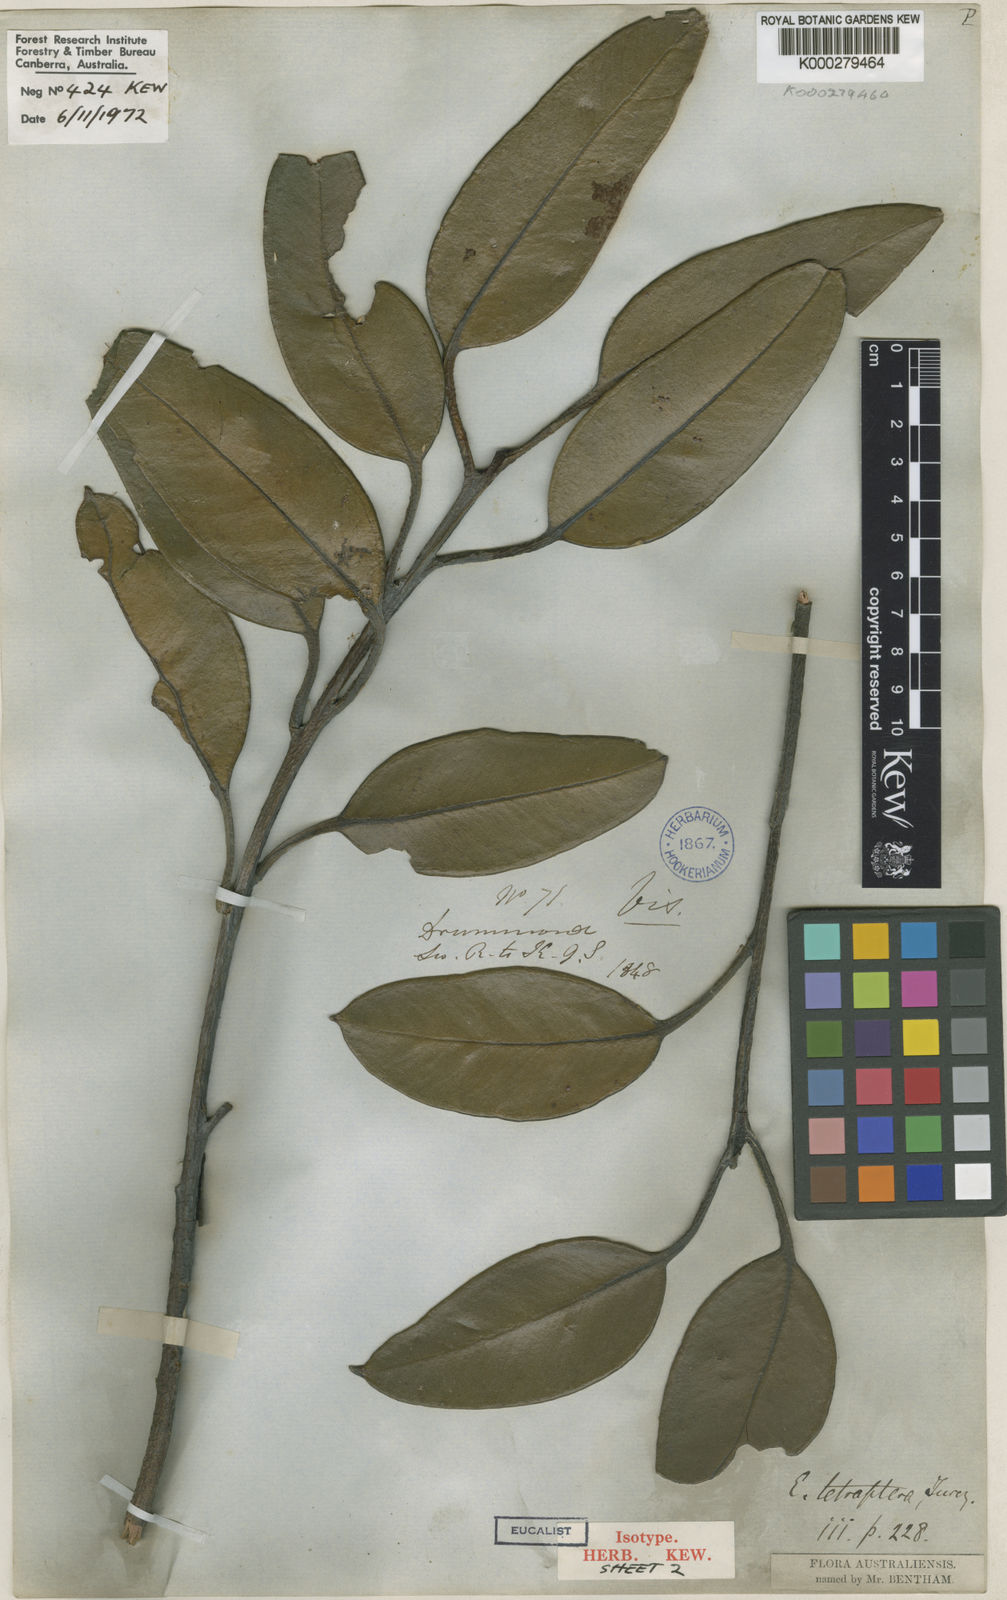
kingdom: Plantae
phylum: Tracheophyta
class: Magnoliopsida
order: Myrtales
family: Myrtaceae
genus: Eucalyptus
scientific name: Eucalyptus tetraptera
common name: Four-wing mallee
